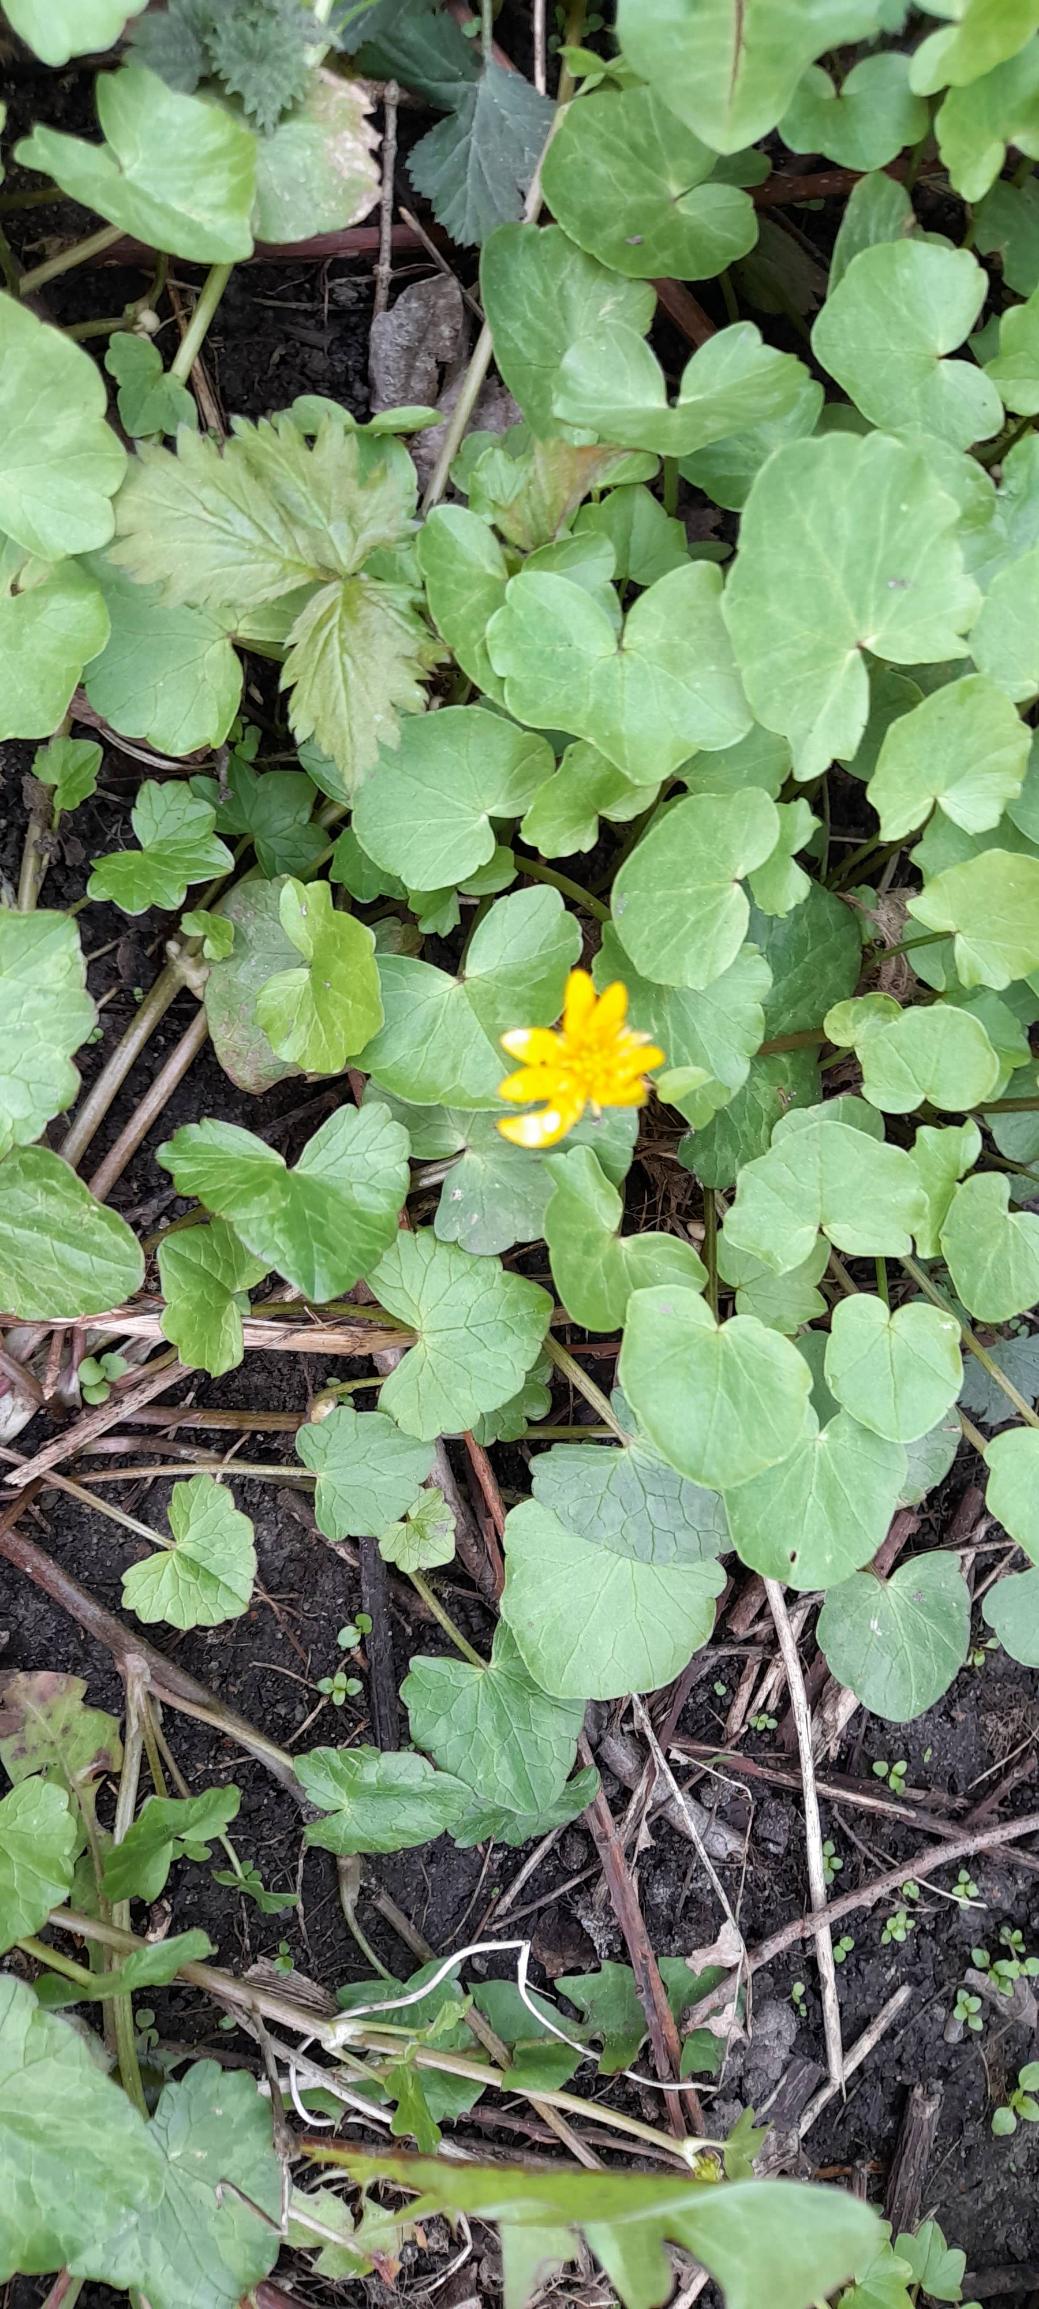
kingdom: Plantae
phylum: Tracheophyta
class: Magnoliopsida
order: Ranunculales
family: Ranunculaceae
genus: Ficaria
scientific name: Ficaria verna
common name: Vorterod
